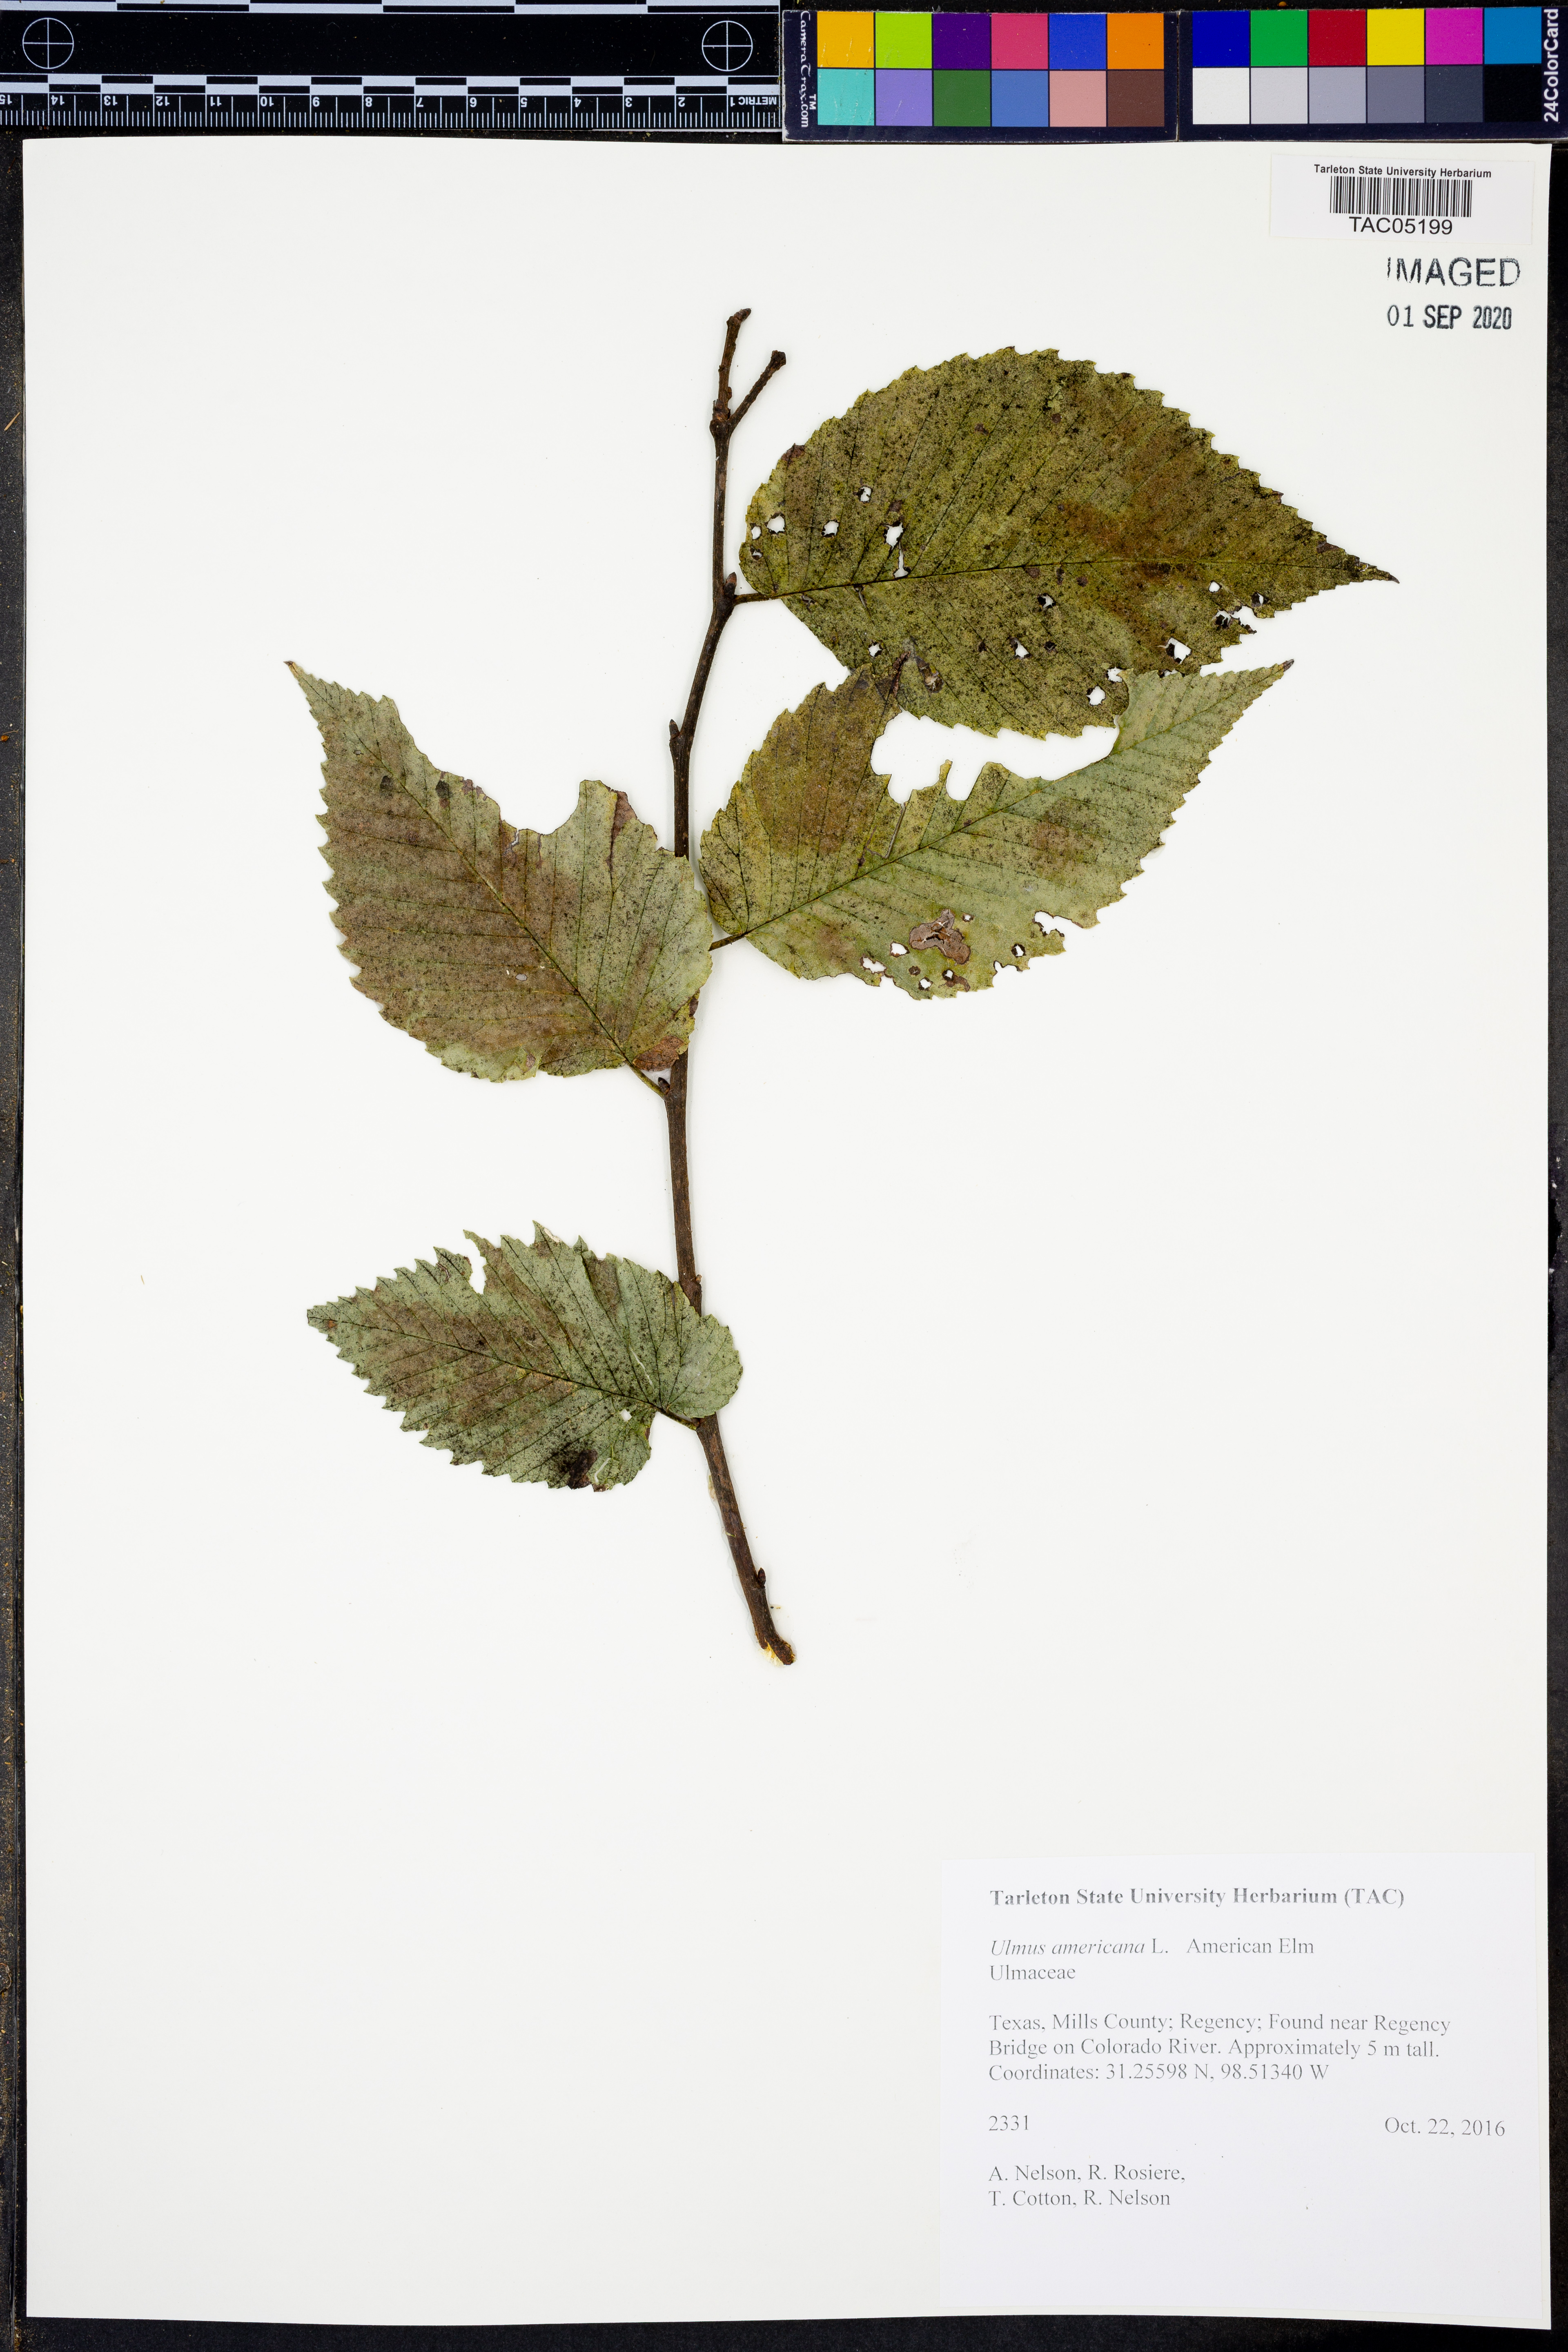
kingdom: Plantae
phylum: Tracheophyta
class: Magnoliopsida
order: Rosales
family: Ulmaceae
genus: Ulmus
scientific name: Ulmus americana
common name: American elm
